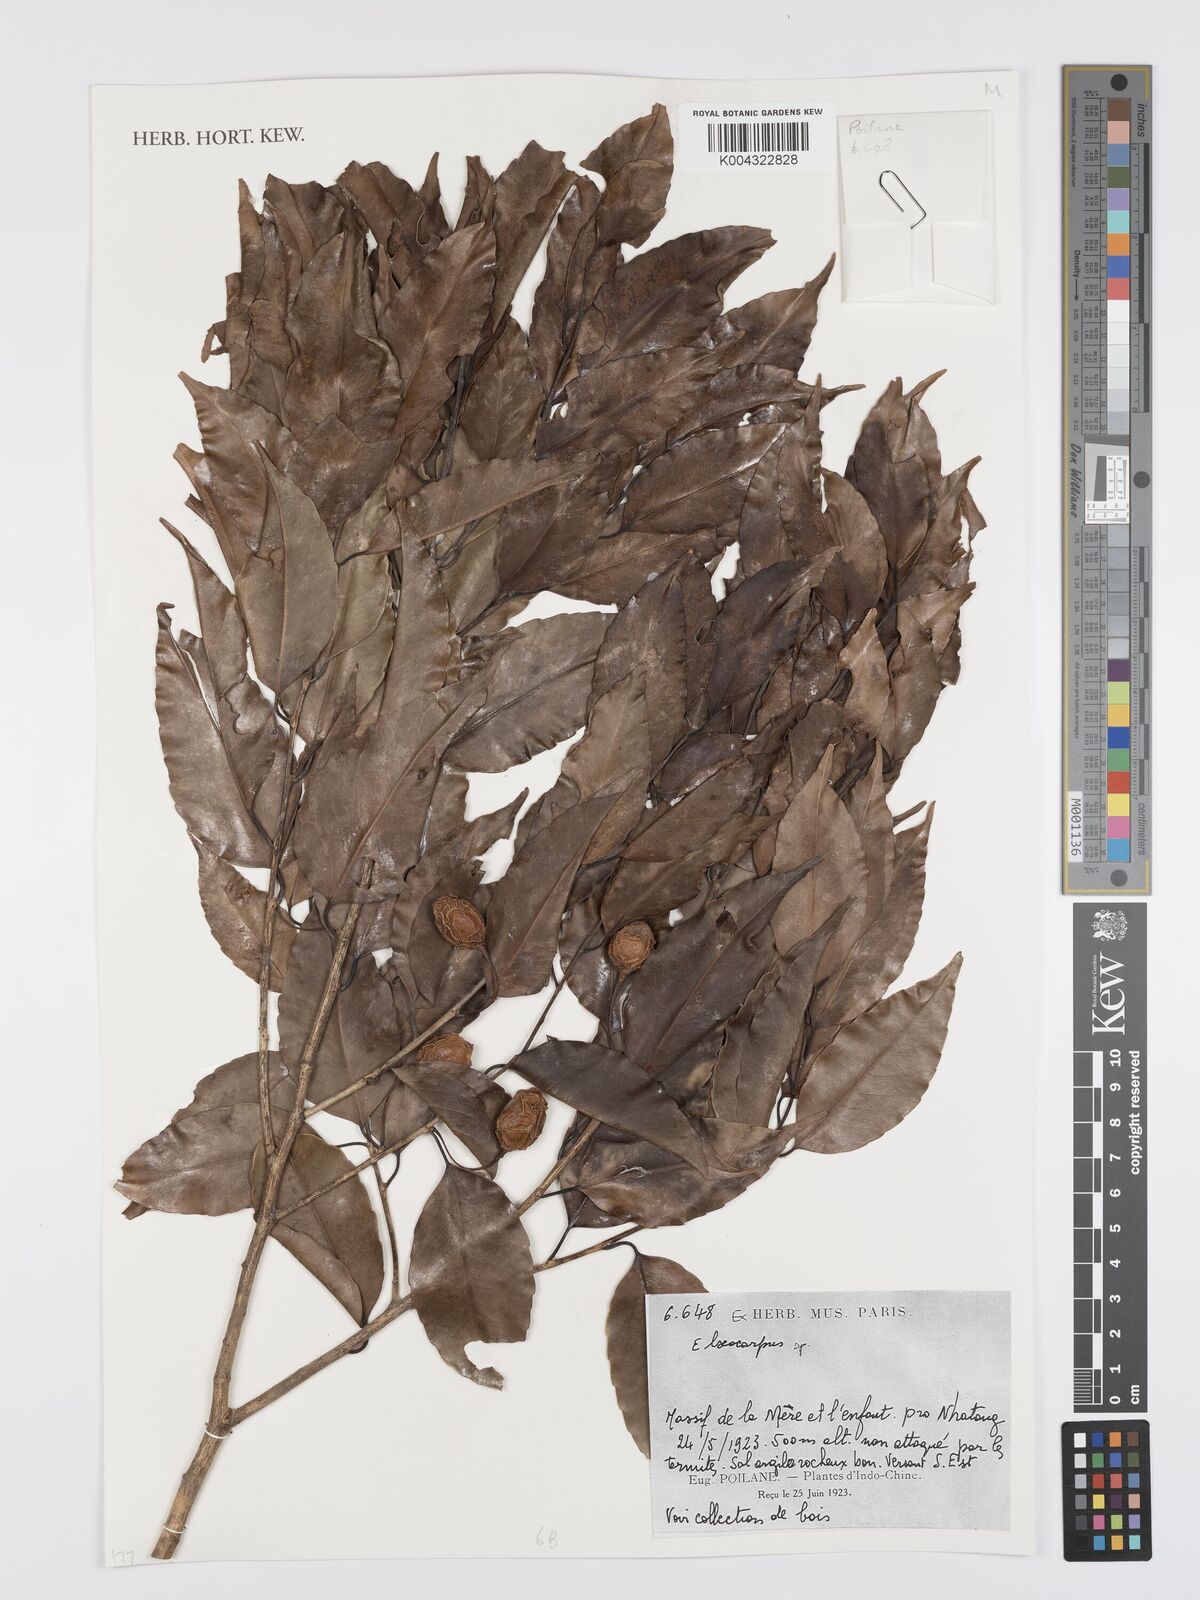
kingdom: Plantae
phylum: Tracheophyta
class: Magnoliopsida
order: Oxalidales
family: Elaeocarpaceae
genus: Elaeocarpus
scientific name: Elaeocarpus
